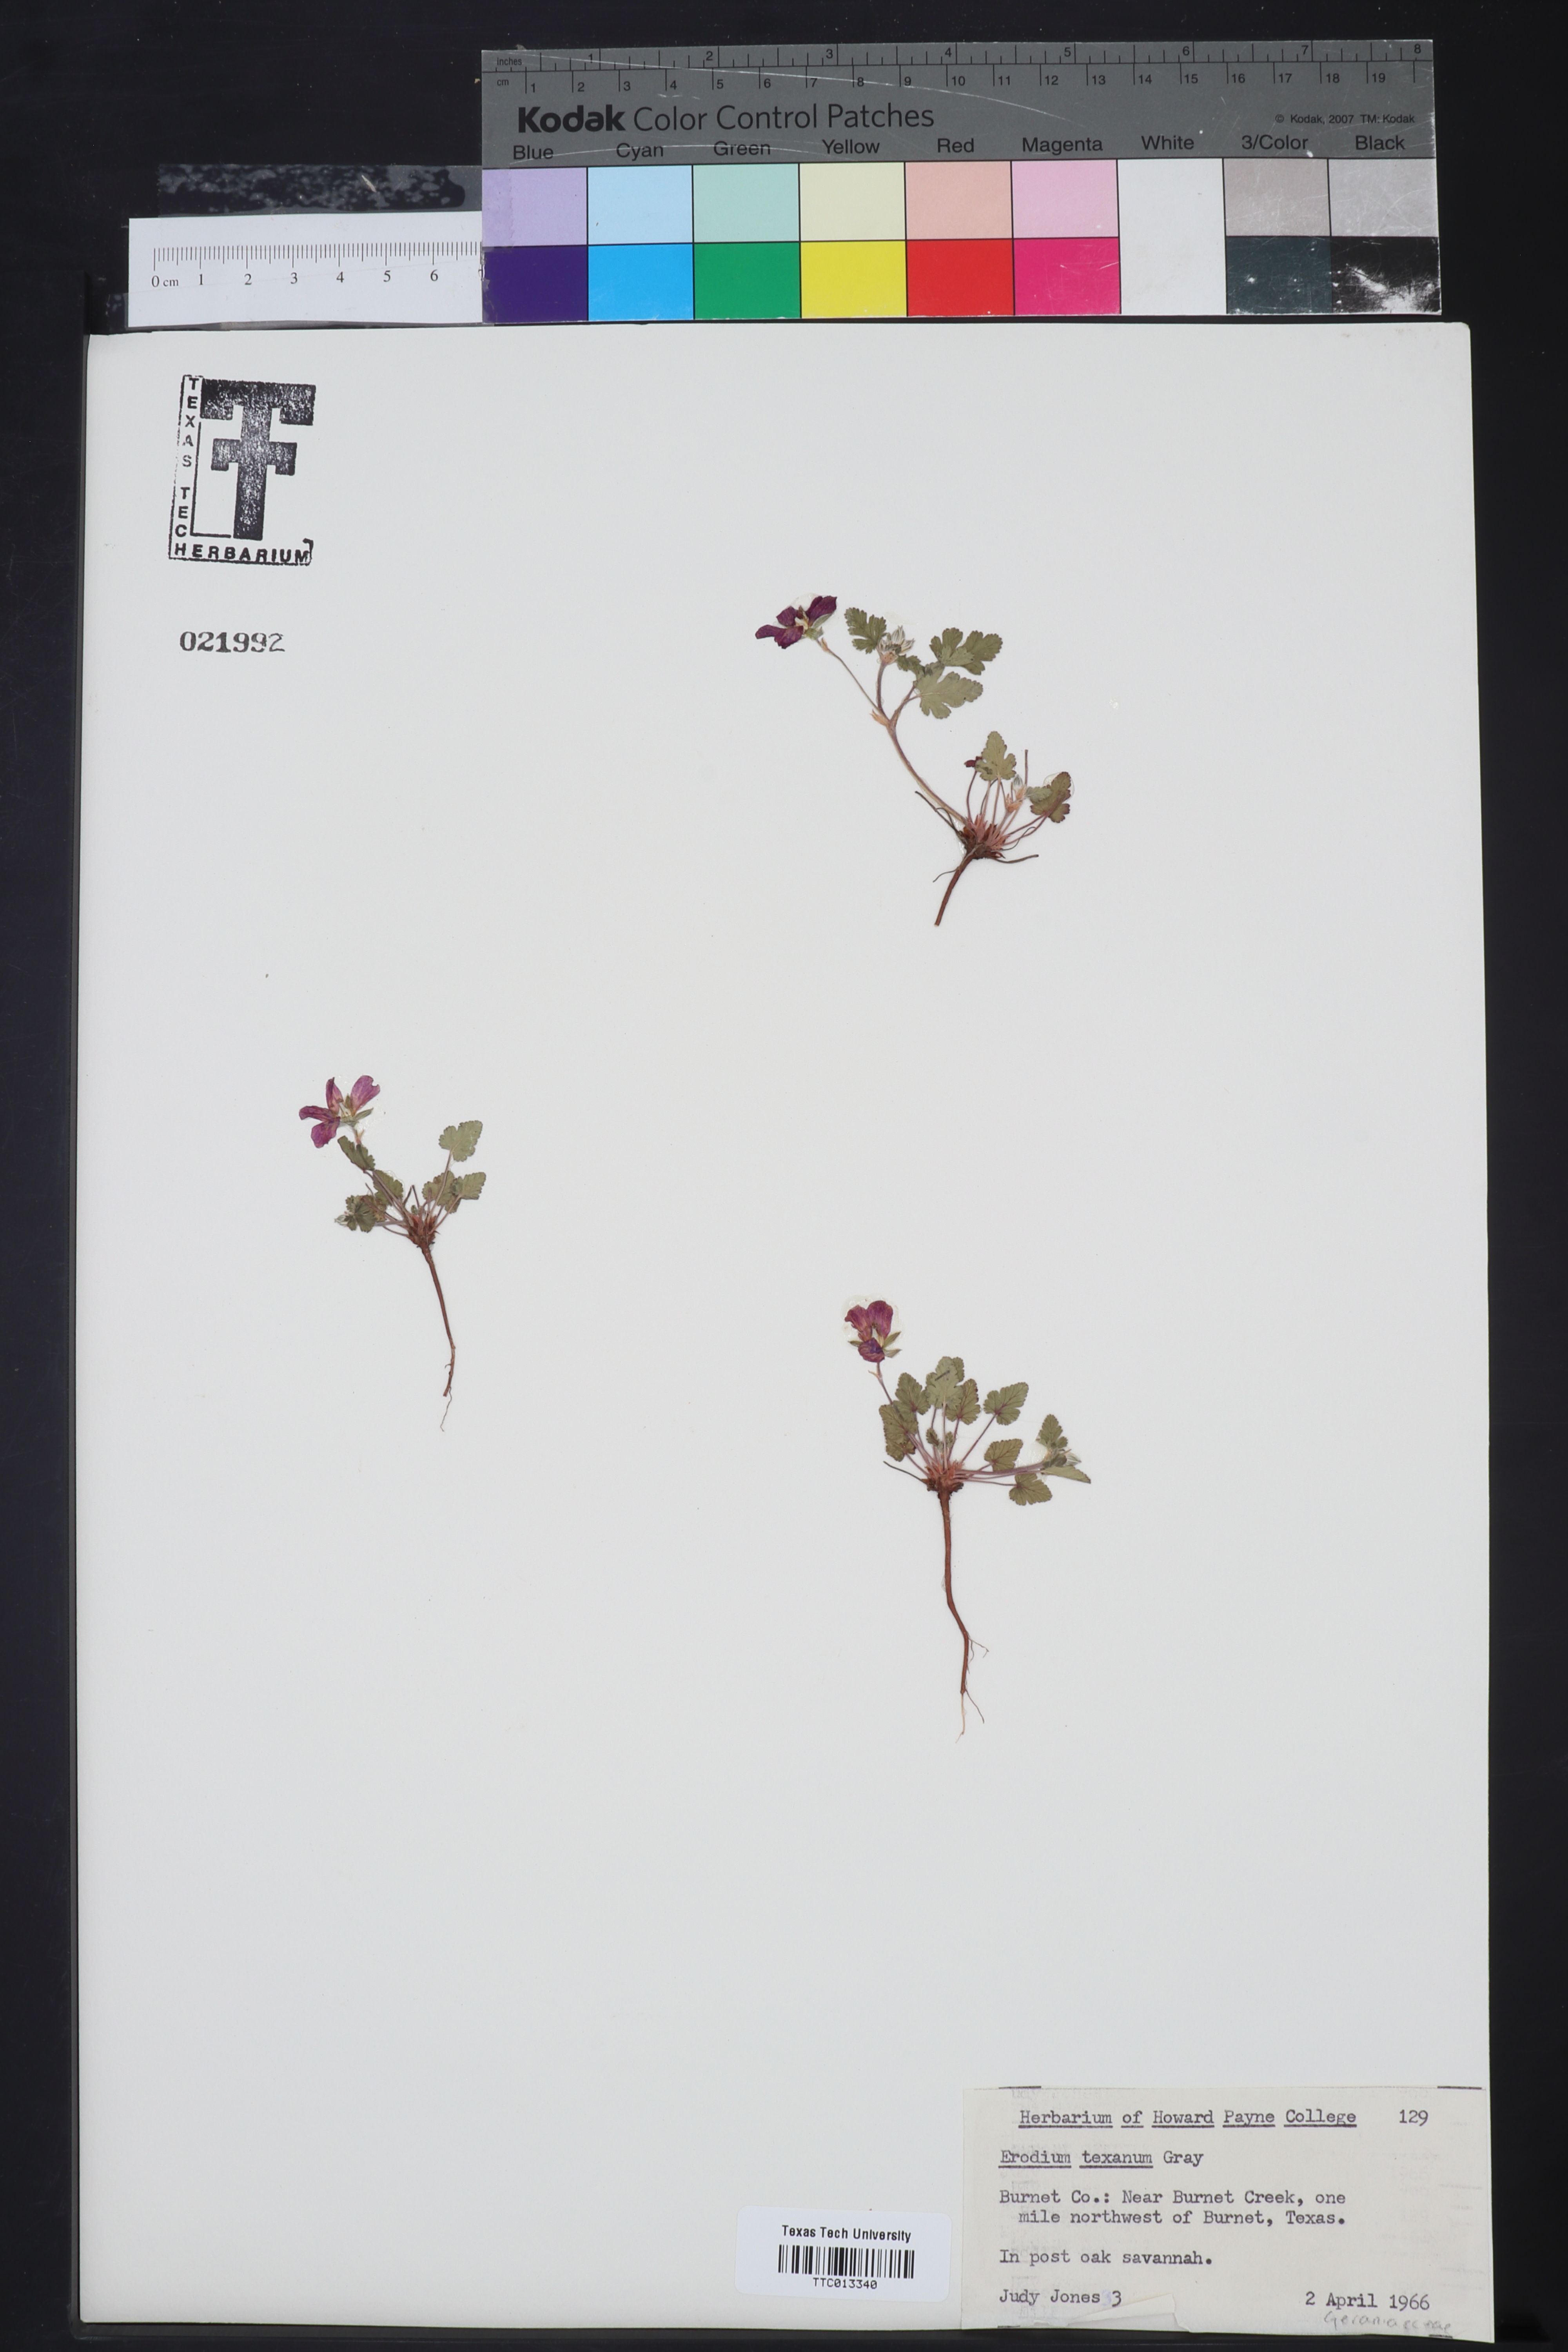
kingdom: Plantae
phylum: Tracheophyta
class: Magnoliopsida
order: Geraniales
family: Geraniaceae
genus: Erodium
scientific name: Erodium texanum
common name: Texas stork's-bill
